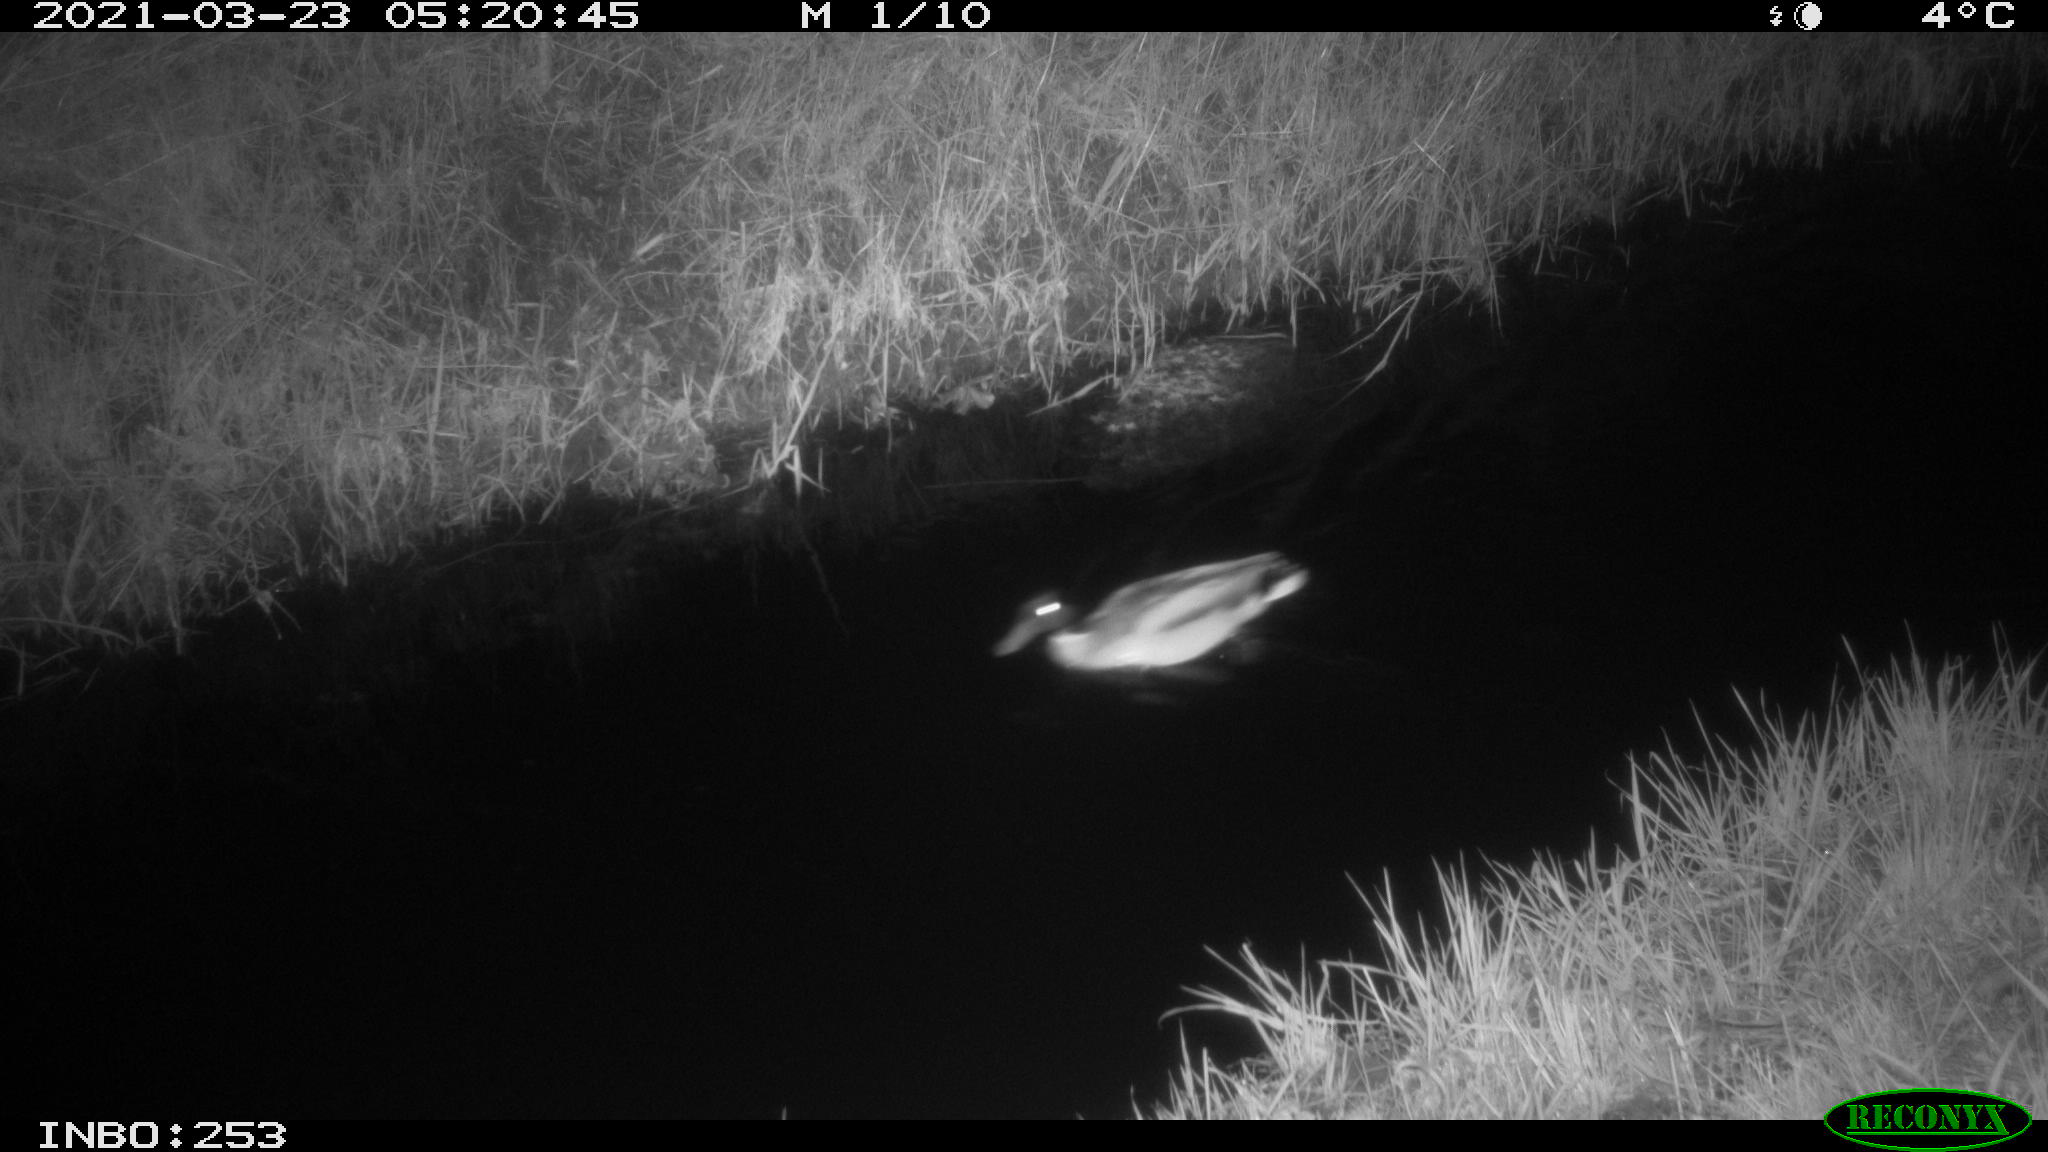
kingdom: Animalia
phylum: Chordata
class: Aves
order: Anseriformes
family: Anatidae
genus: Anas
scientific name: Anas platyrhynchos
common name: Mallard
